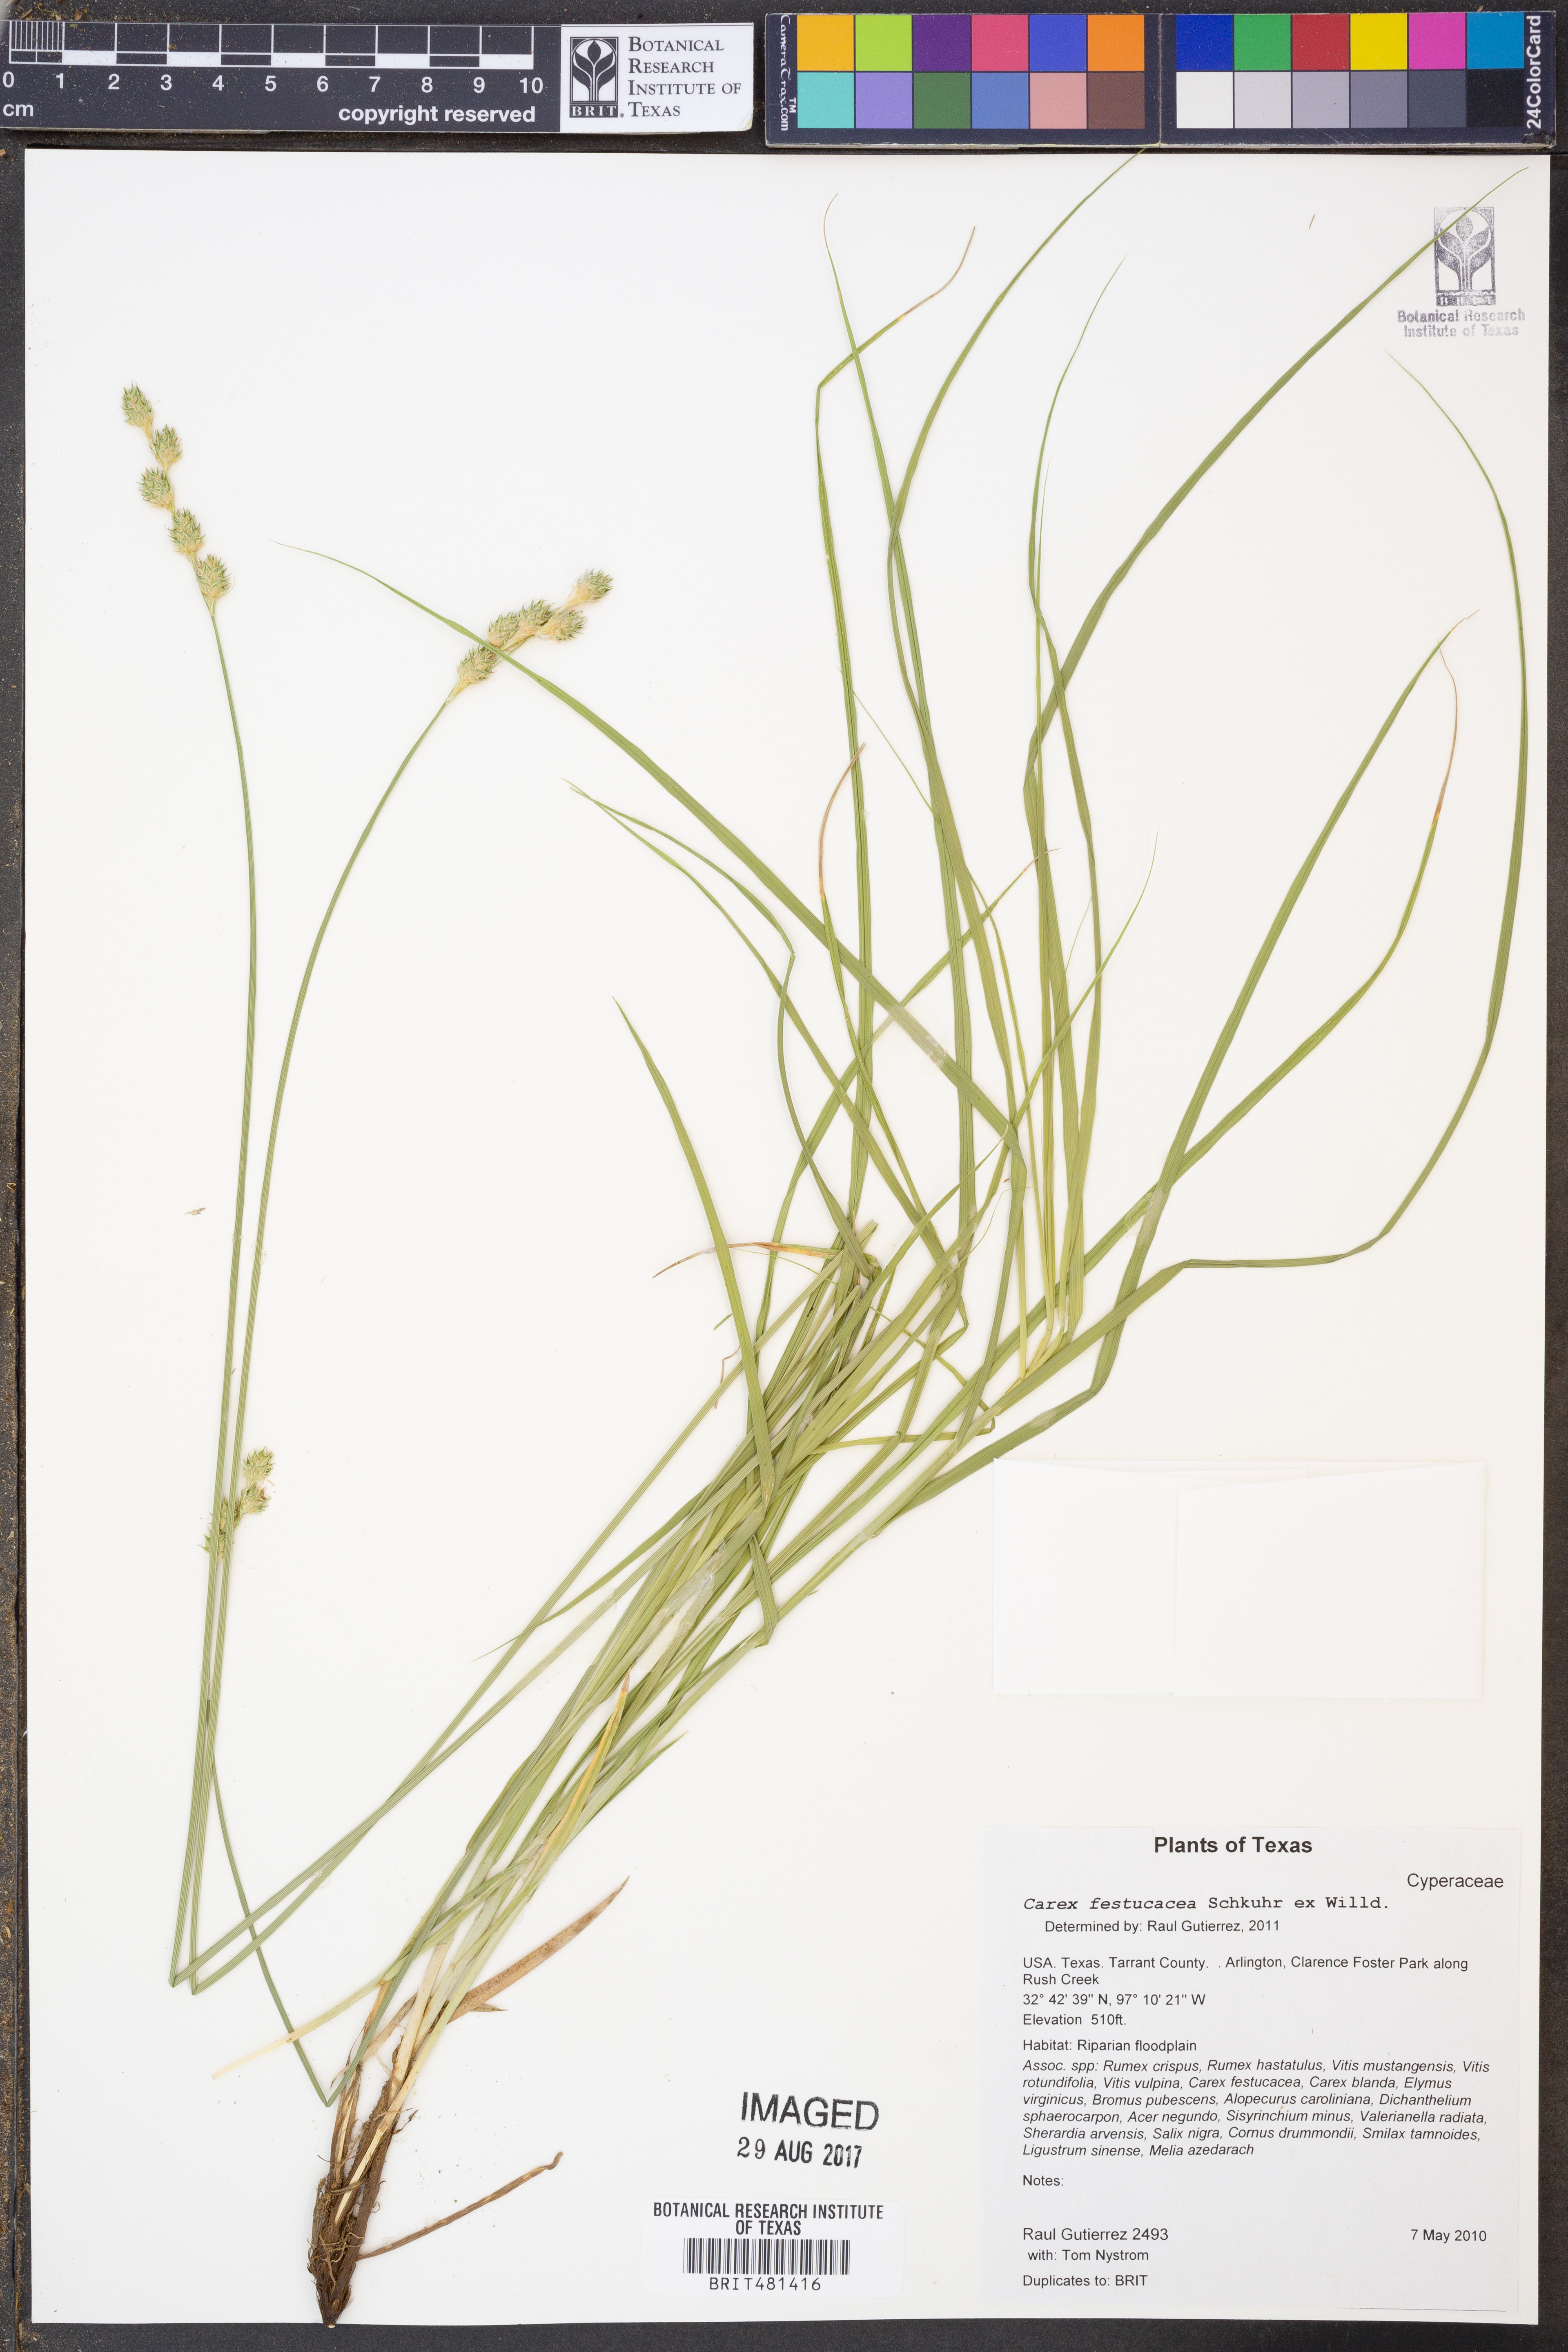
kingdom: Plantae
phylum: Tracheophyta
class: Liliopsida
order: Poales
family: Cyperaceae
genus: Carex
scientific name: Carex festucacea
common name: Fescue oval sedge
